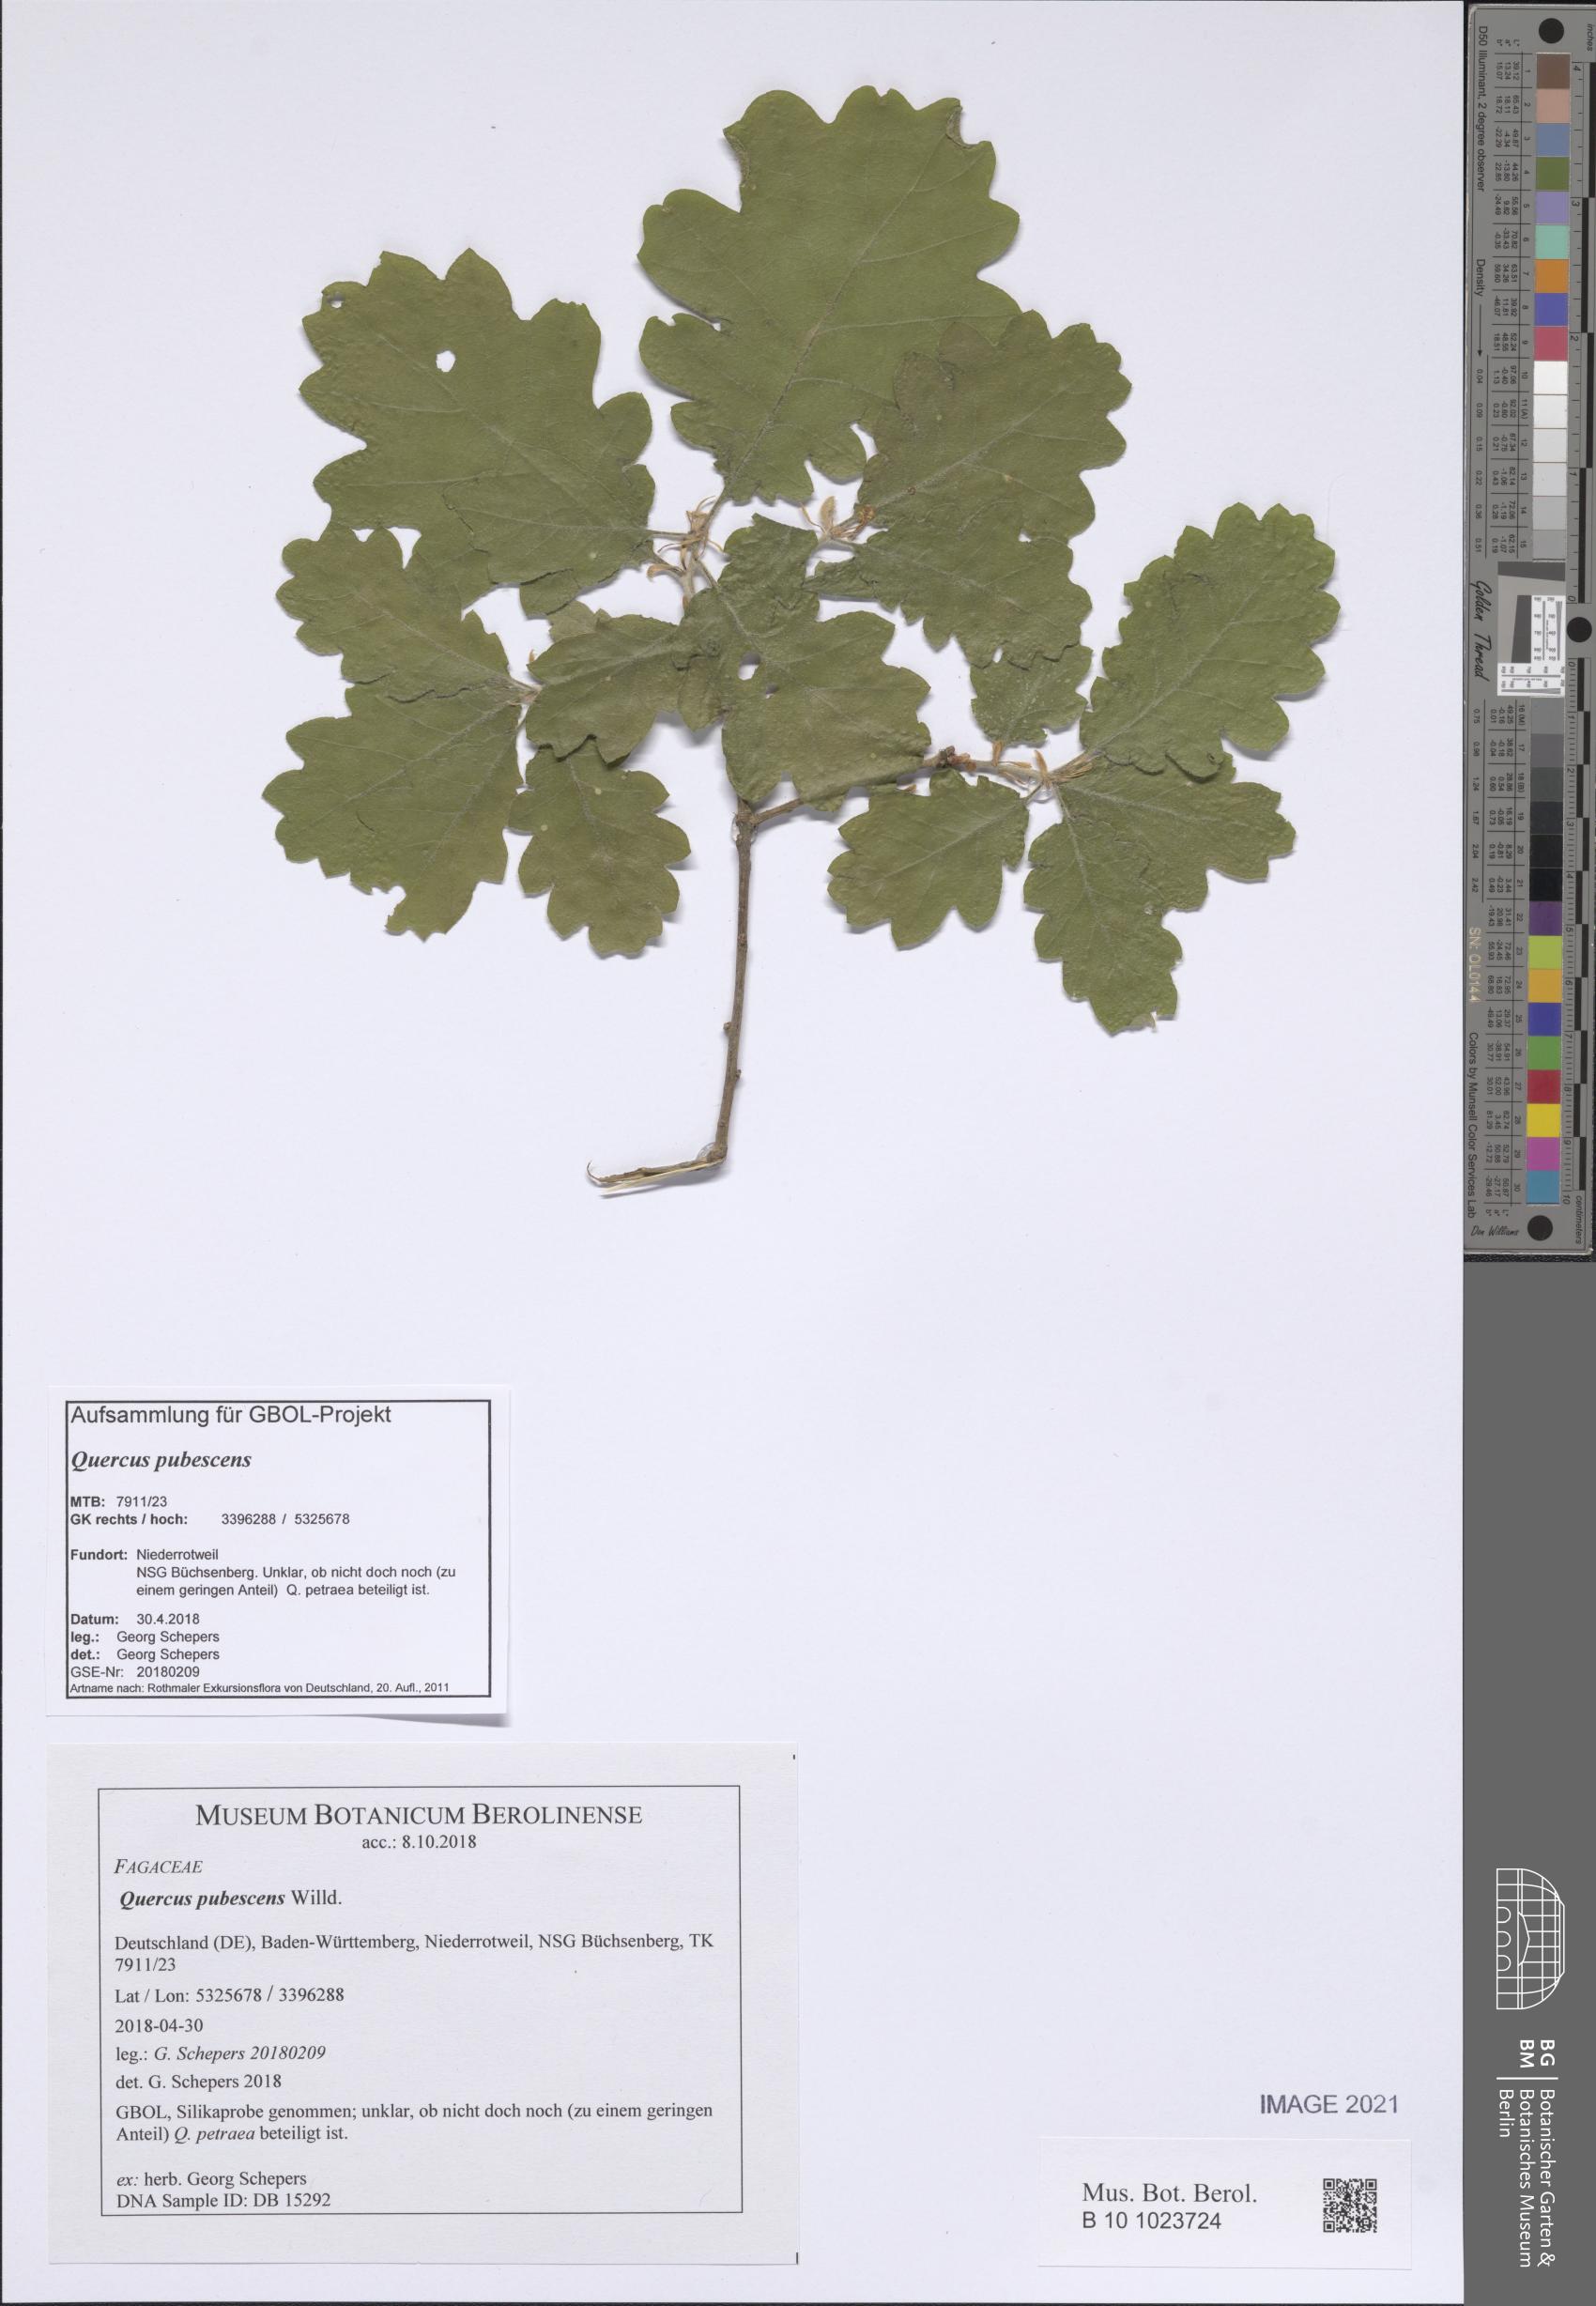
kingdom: Plantae
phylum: Tracheophyta
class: Magnoliopsida
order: Fagales
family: Fagaceae
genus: Quercus
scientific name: Quercus pubescens
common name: Downy oak
